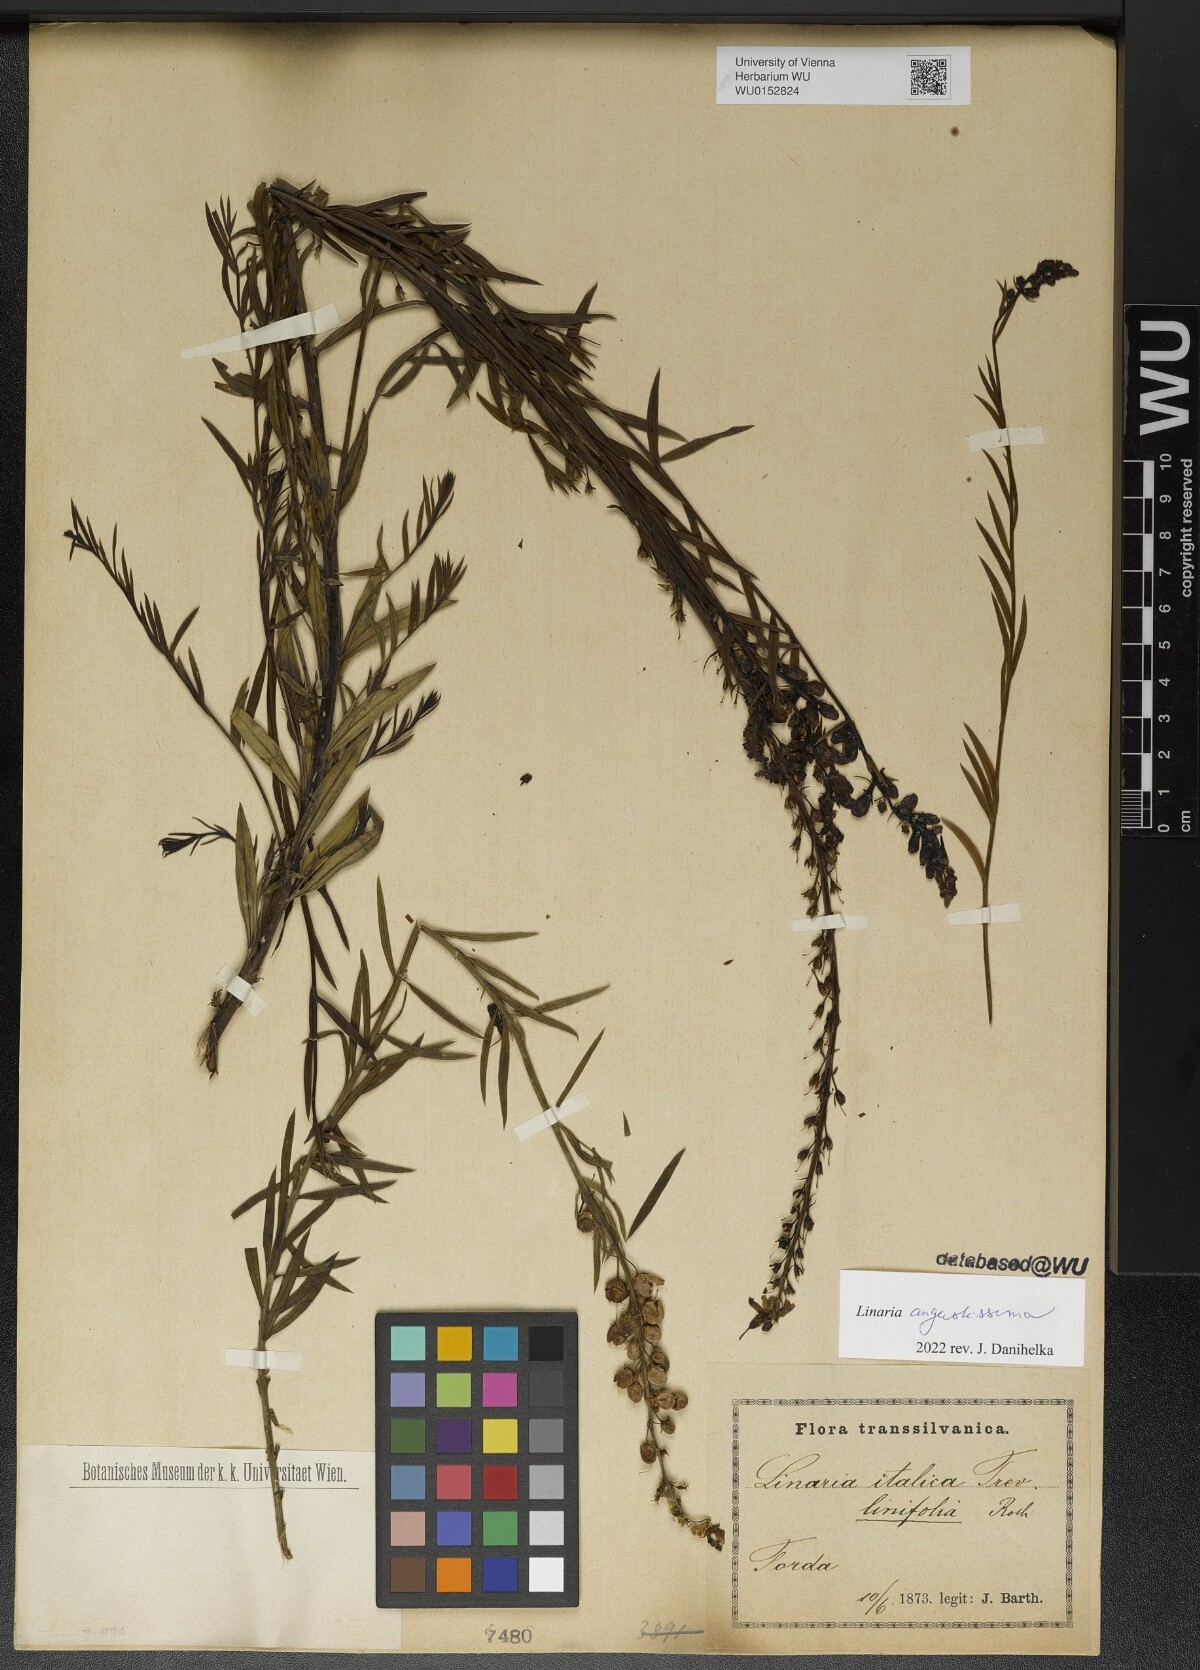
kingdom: Plantae
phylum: Tracheophyta
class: Magnoliopsida
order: Lamiales
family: Plantaginaceae
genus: Linaria
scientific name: Linaria angustissima
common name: Italian toadflax
